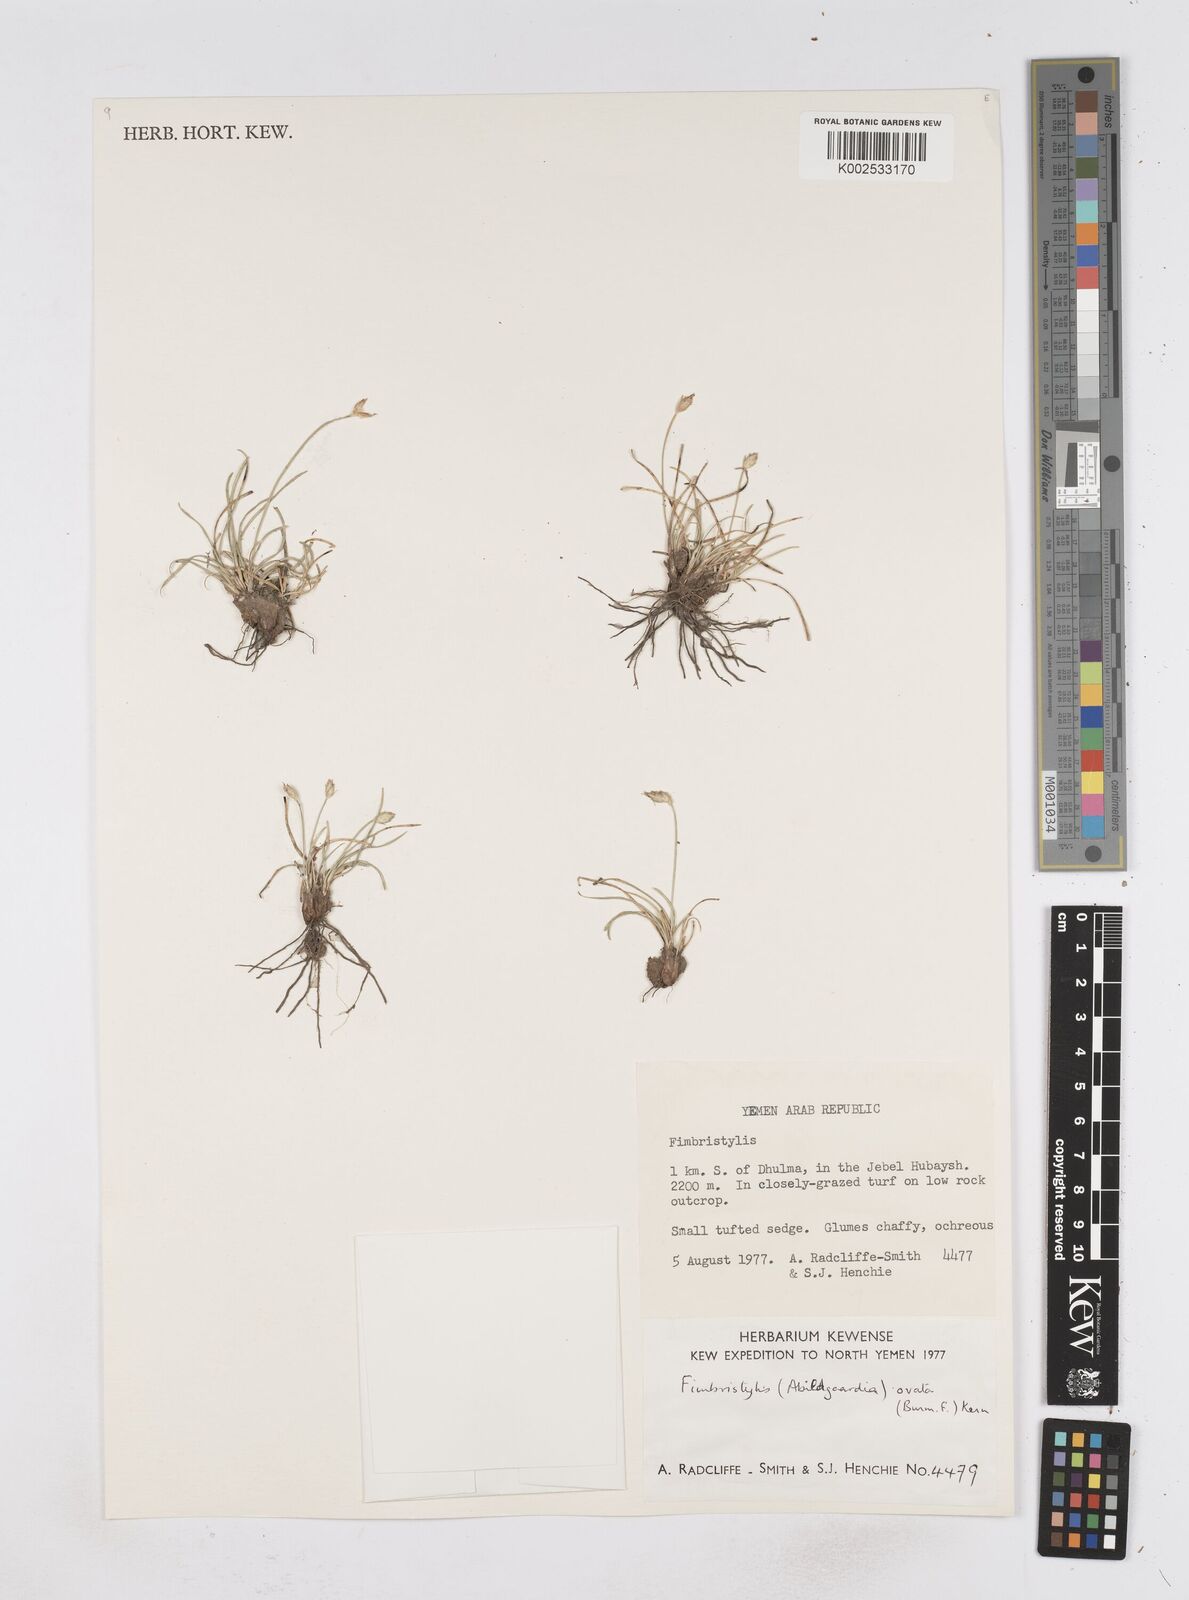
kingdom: Plantae
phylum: Tracheophyta
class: Liliopsida
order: Poales
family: Cyperaceae
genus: Abildgaardia
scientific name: Abildgaardia ovata
